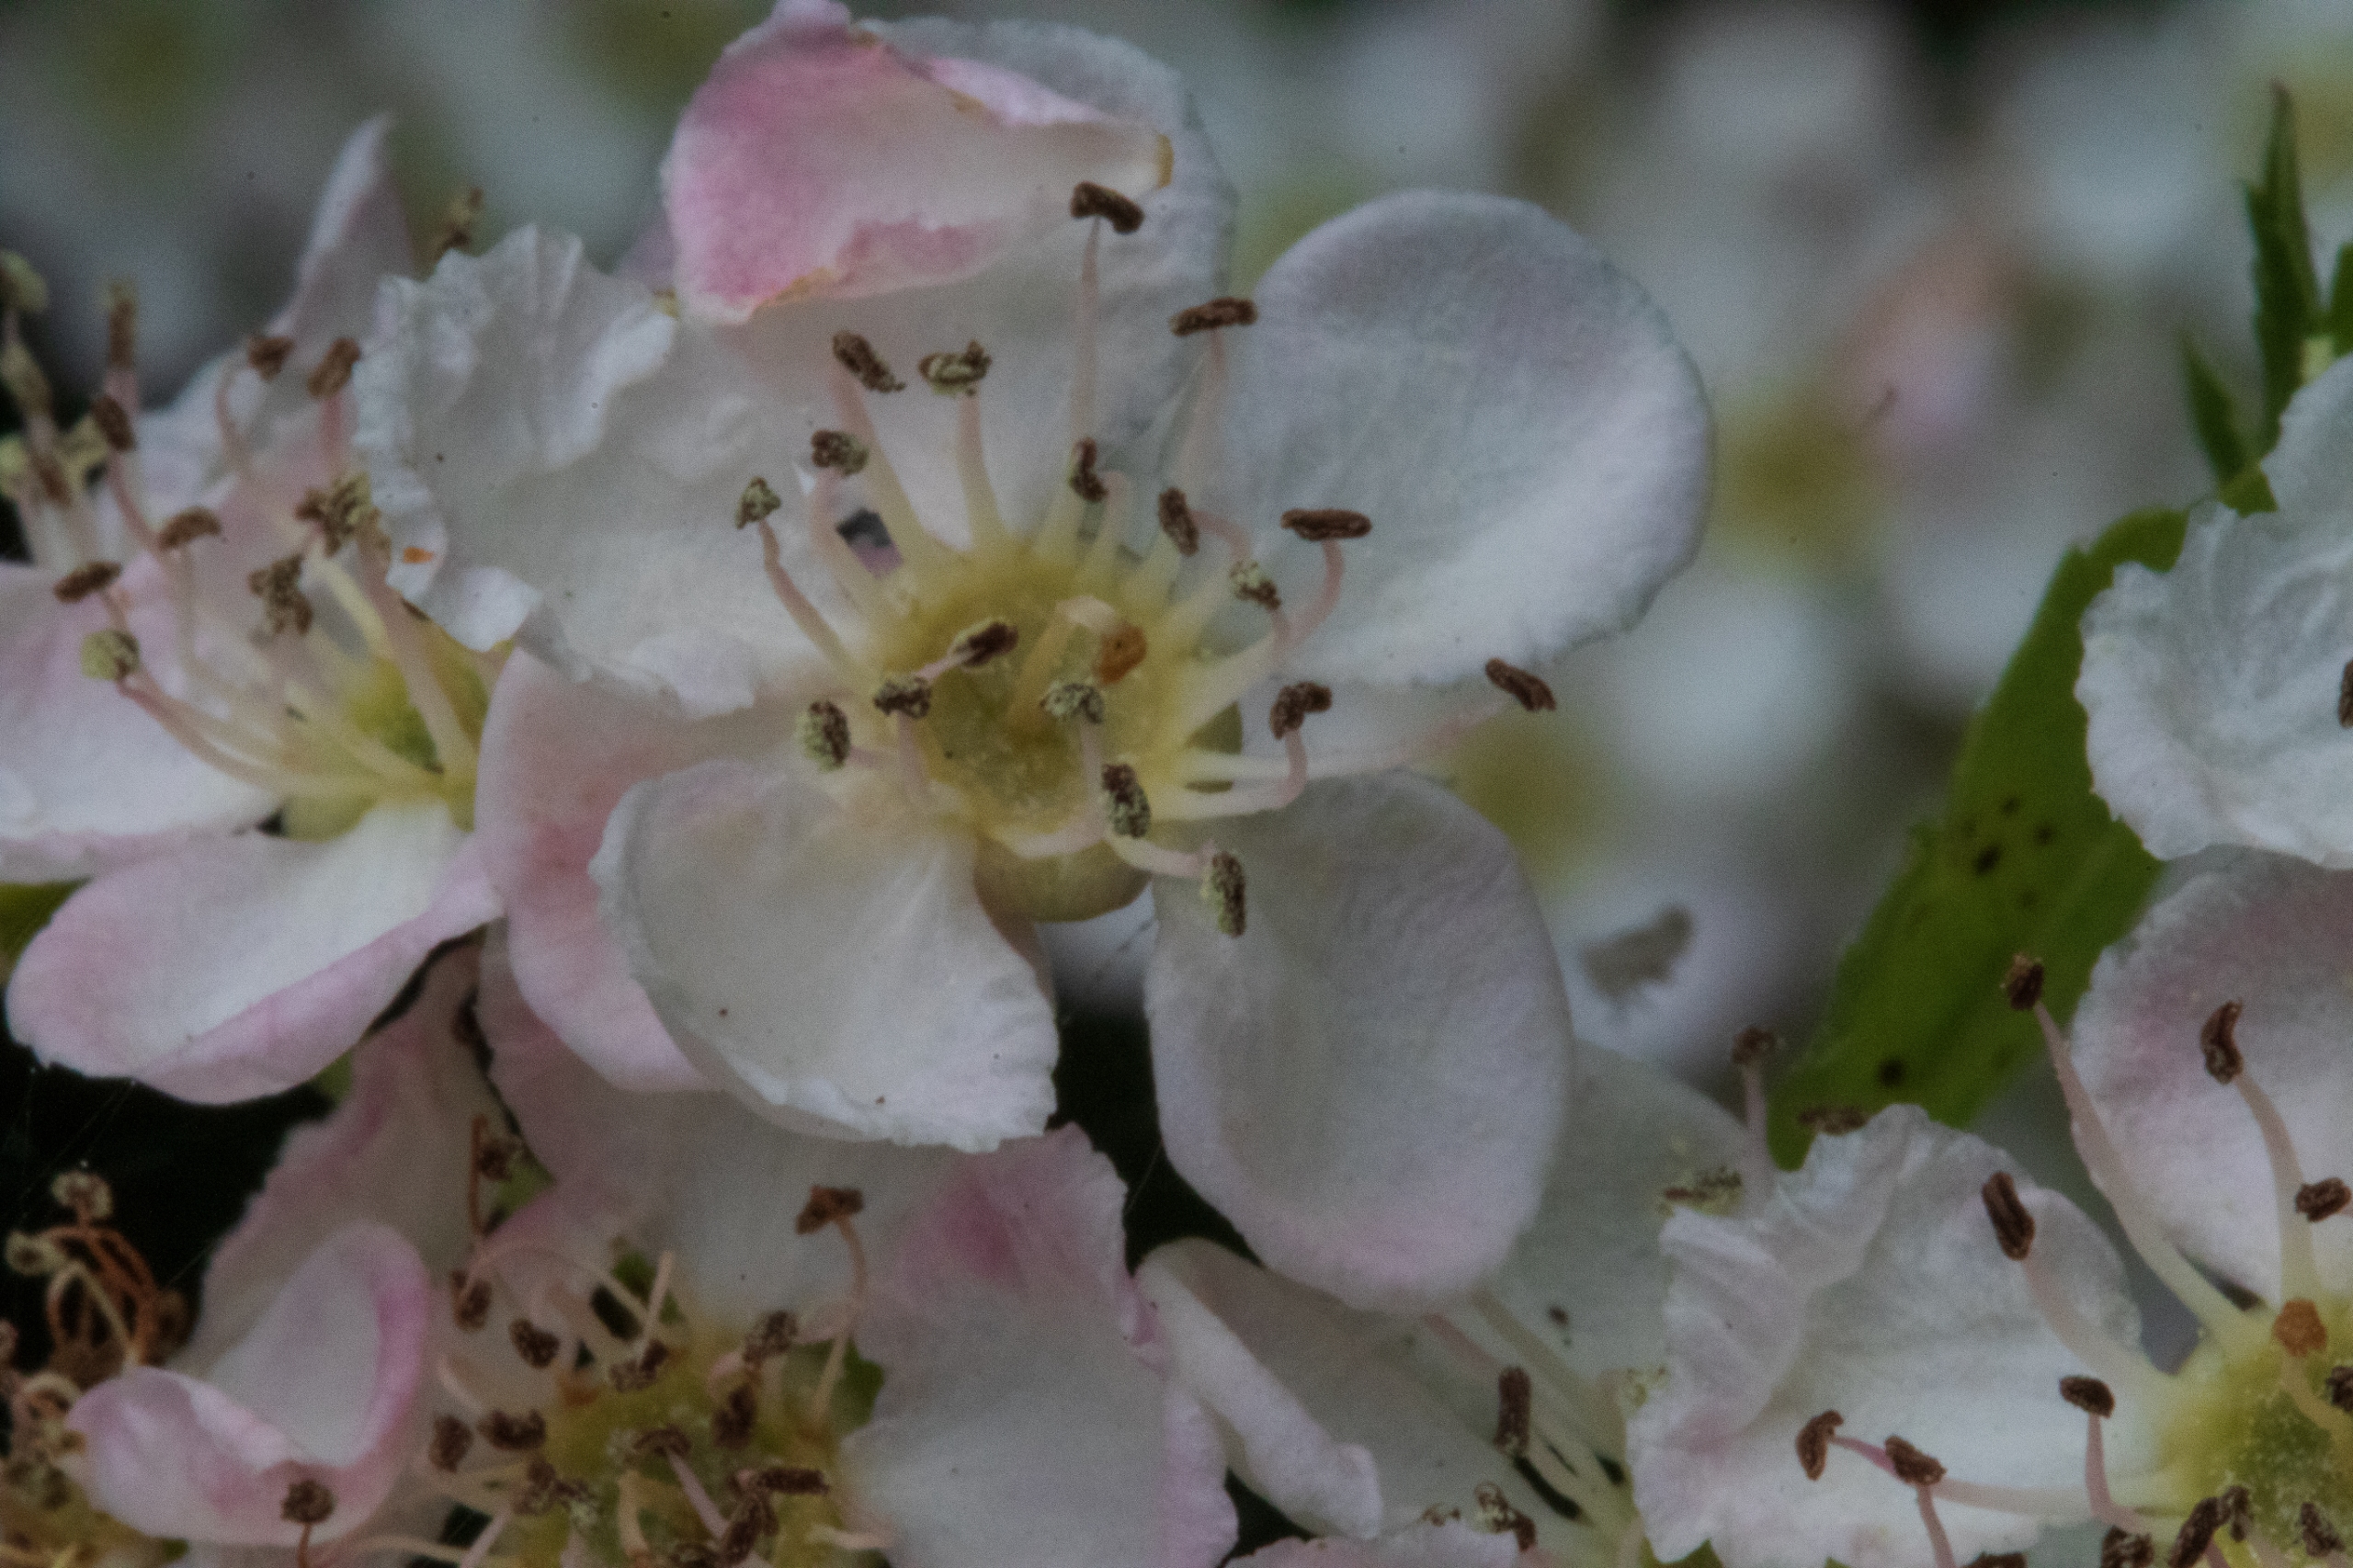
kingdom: Plantae
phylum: Tracheophyta
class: Magnoliopsida
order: Rosales
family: Rosaceae
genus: Crataegus
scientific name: Crataegus
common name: Hvidtjørnslægten
